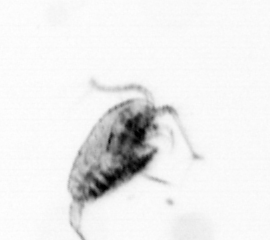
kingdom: Animalia
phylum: Arthropoda
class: Copepoda
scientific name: Copepoda
